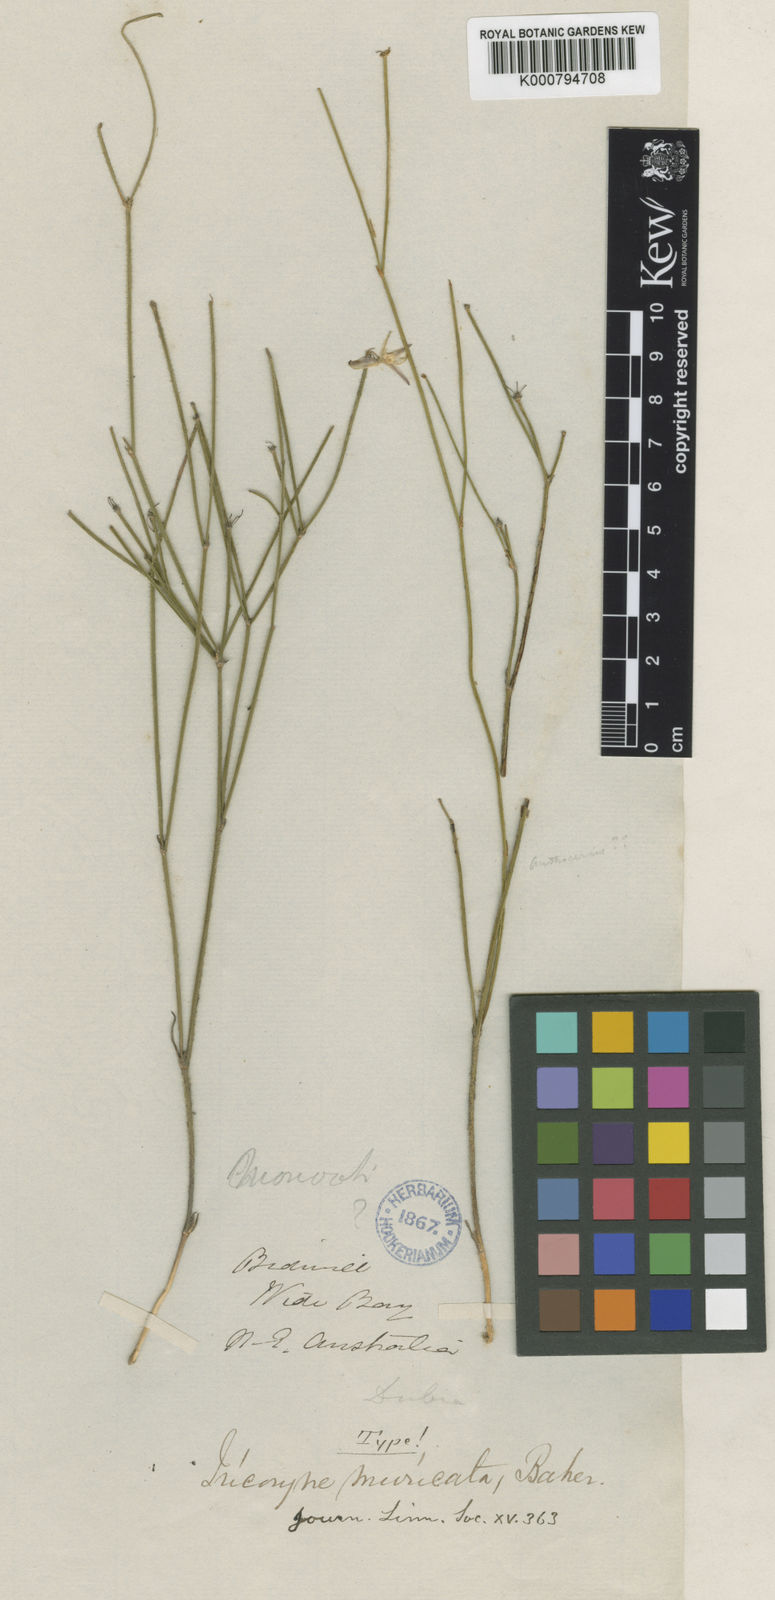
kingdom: Plantae
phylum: Tracheophyta
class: Liliopsida
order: Asparagales
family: Asphodelaceae
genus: Tricoryne
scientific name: Tricoryne muricata
